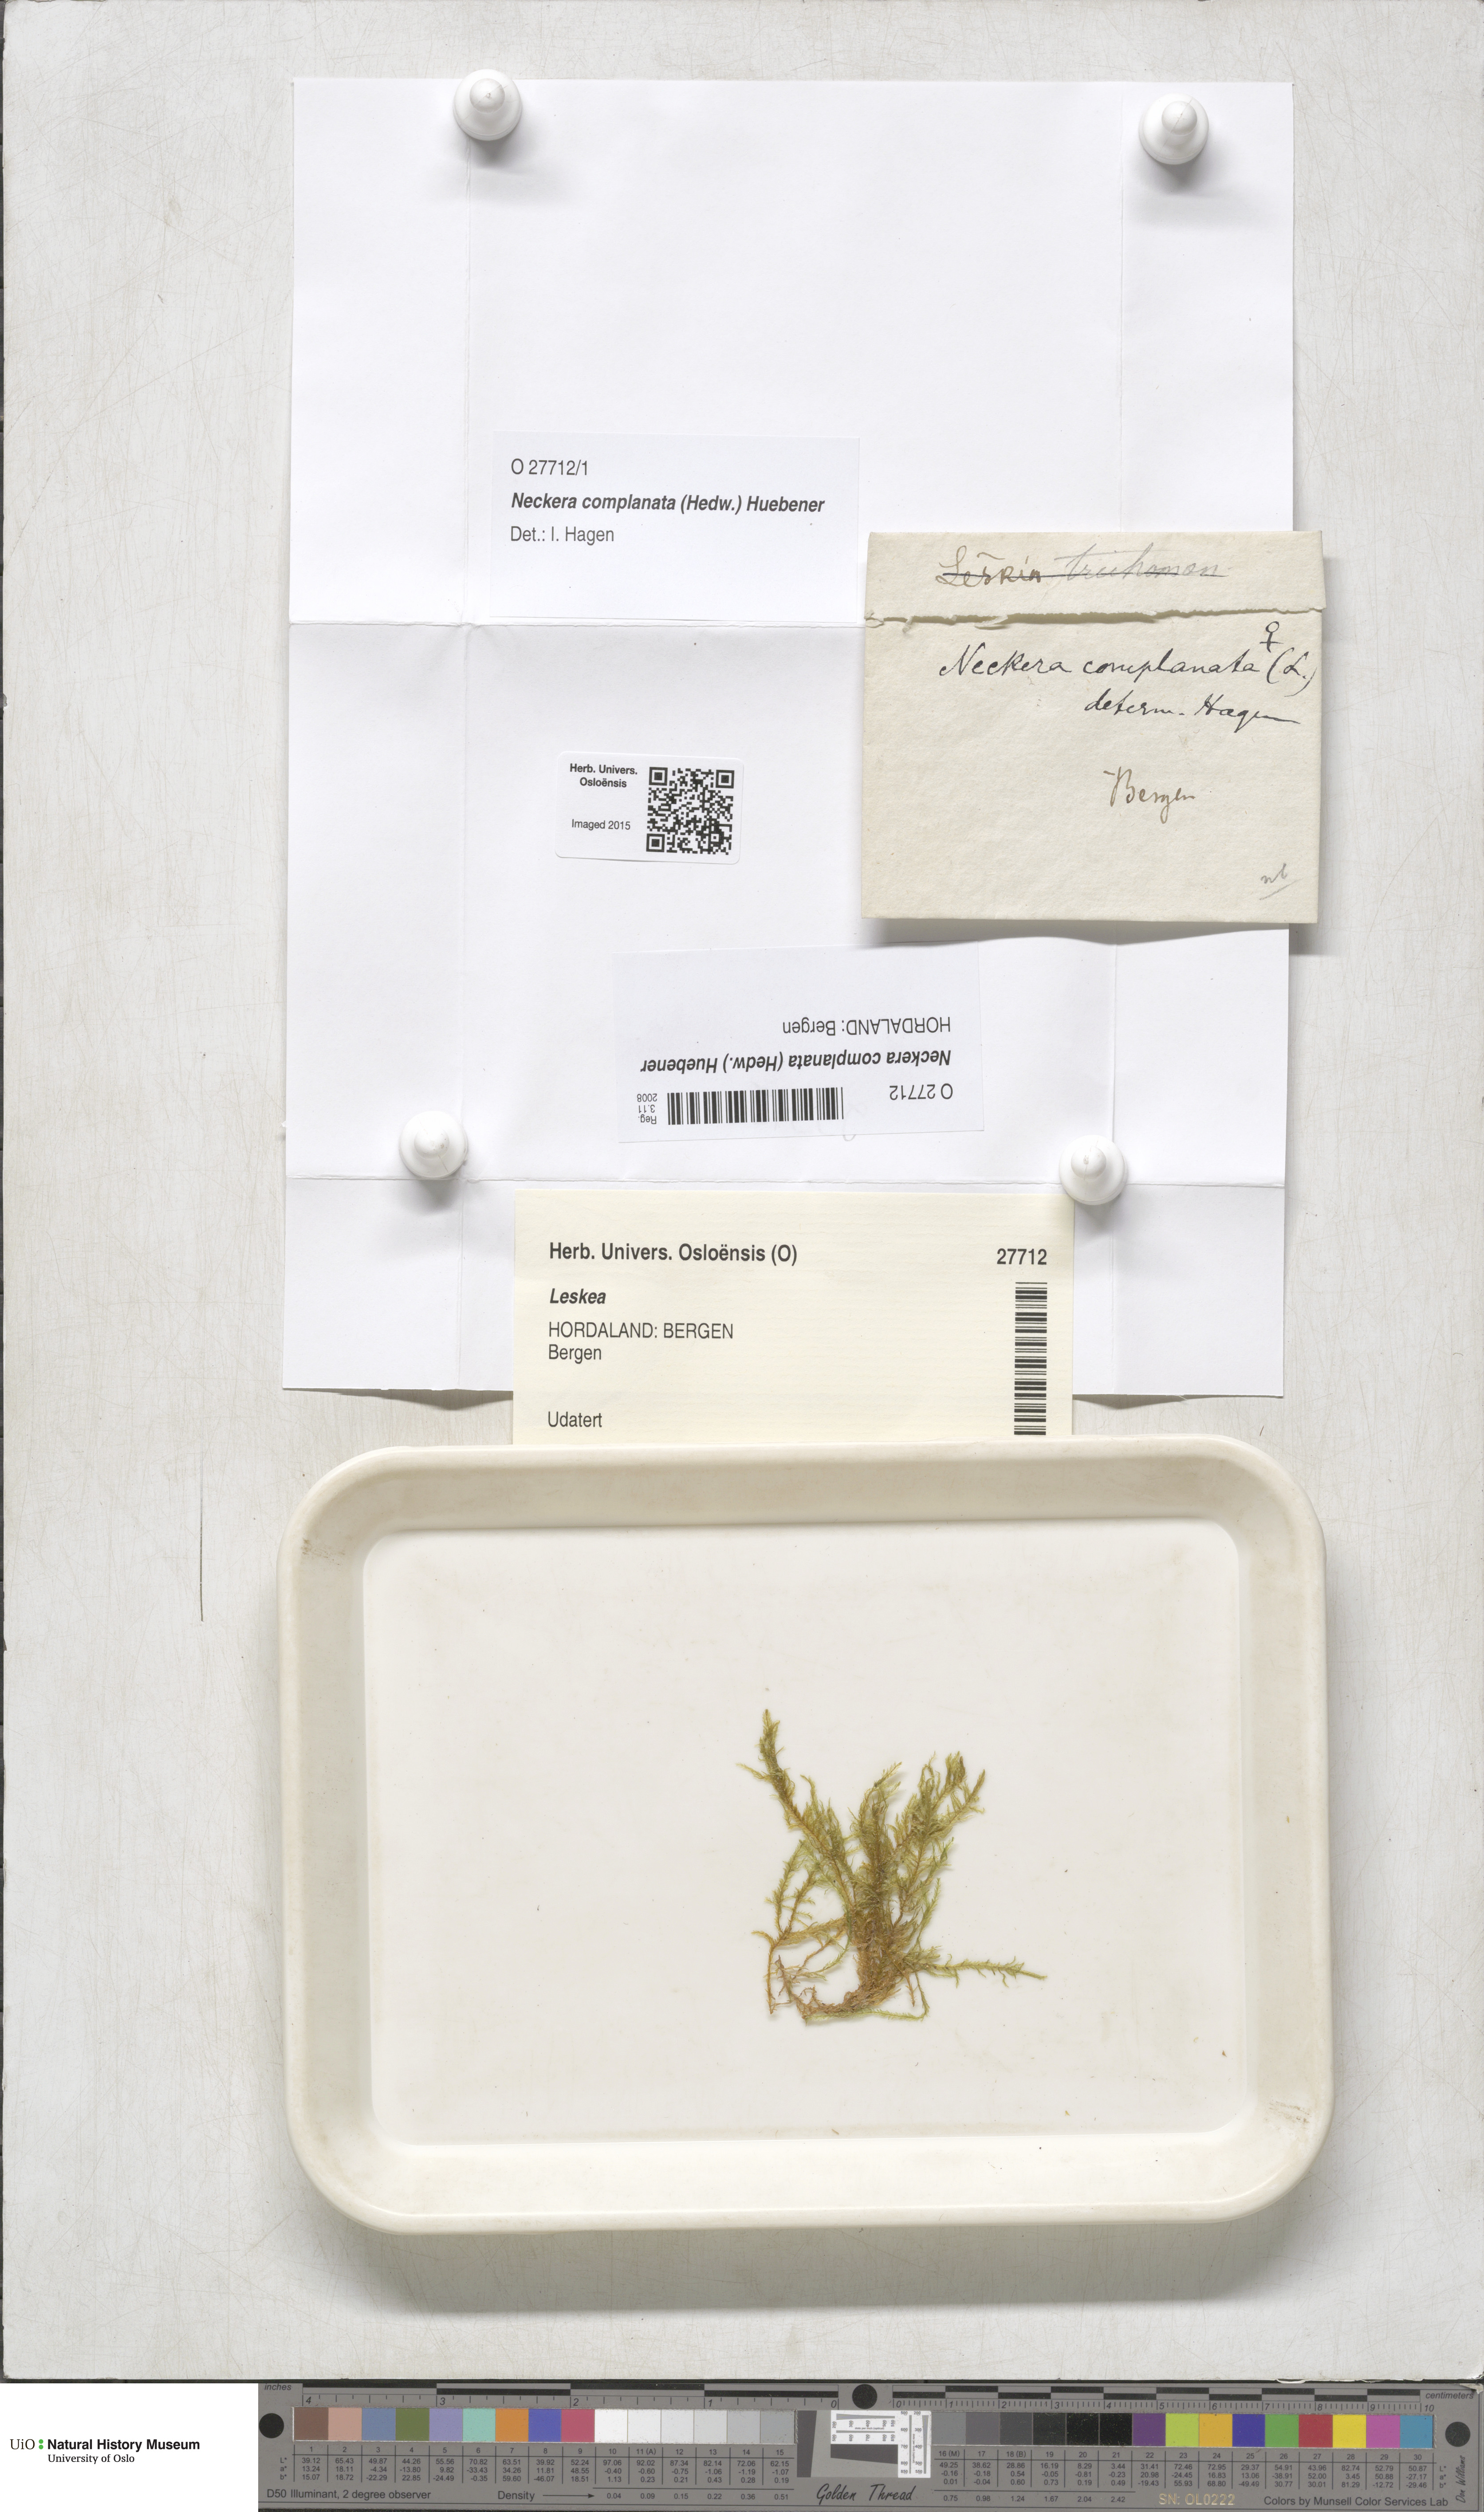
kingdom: Plantae
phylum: Bryophyta
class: Bryopsida
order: Hypnales
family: Neckeraceae
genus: Alleniella
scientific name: Alleniella complanata
